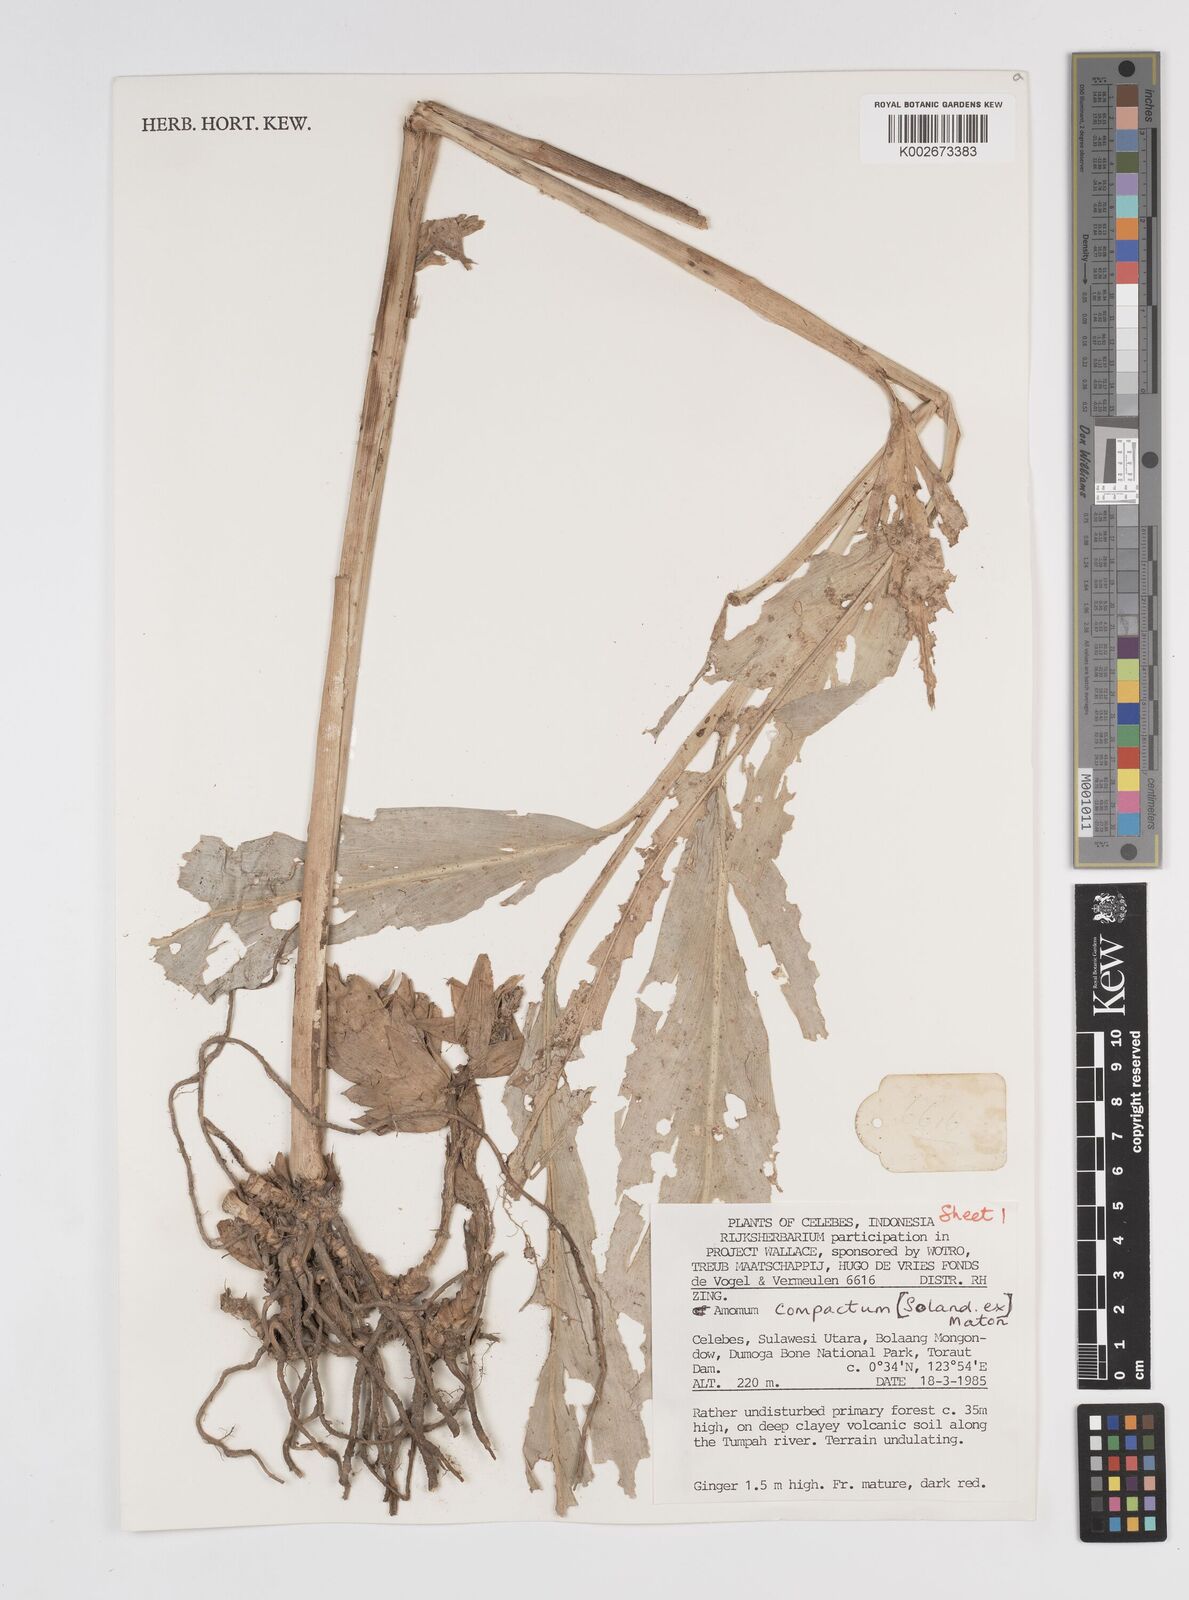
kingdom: Plantae
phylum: Tracheophyta
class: Liliopsida
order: Zingiberales
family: Zingiberaceae
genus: Wurfbainia
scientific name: Wurfbainia compacta
